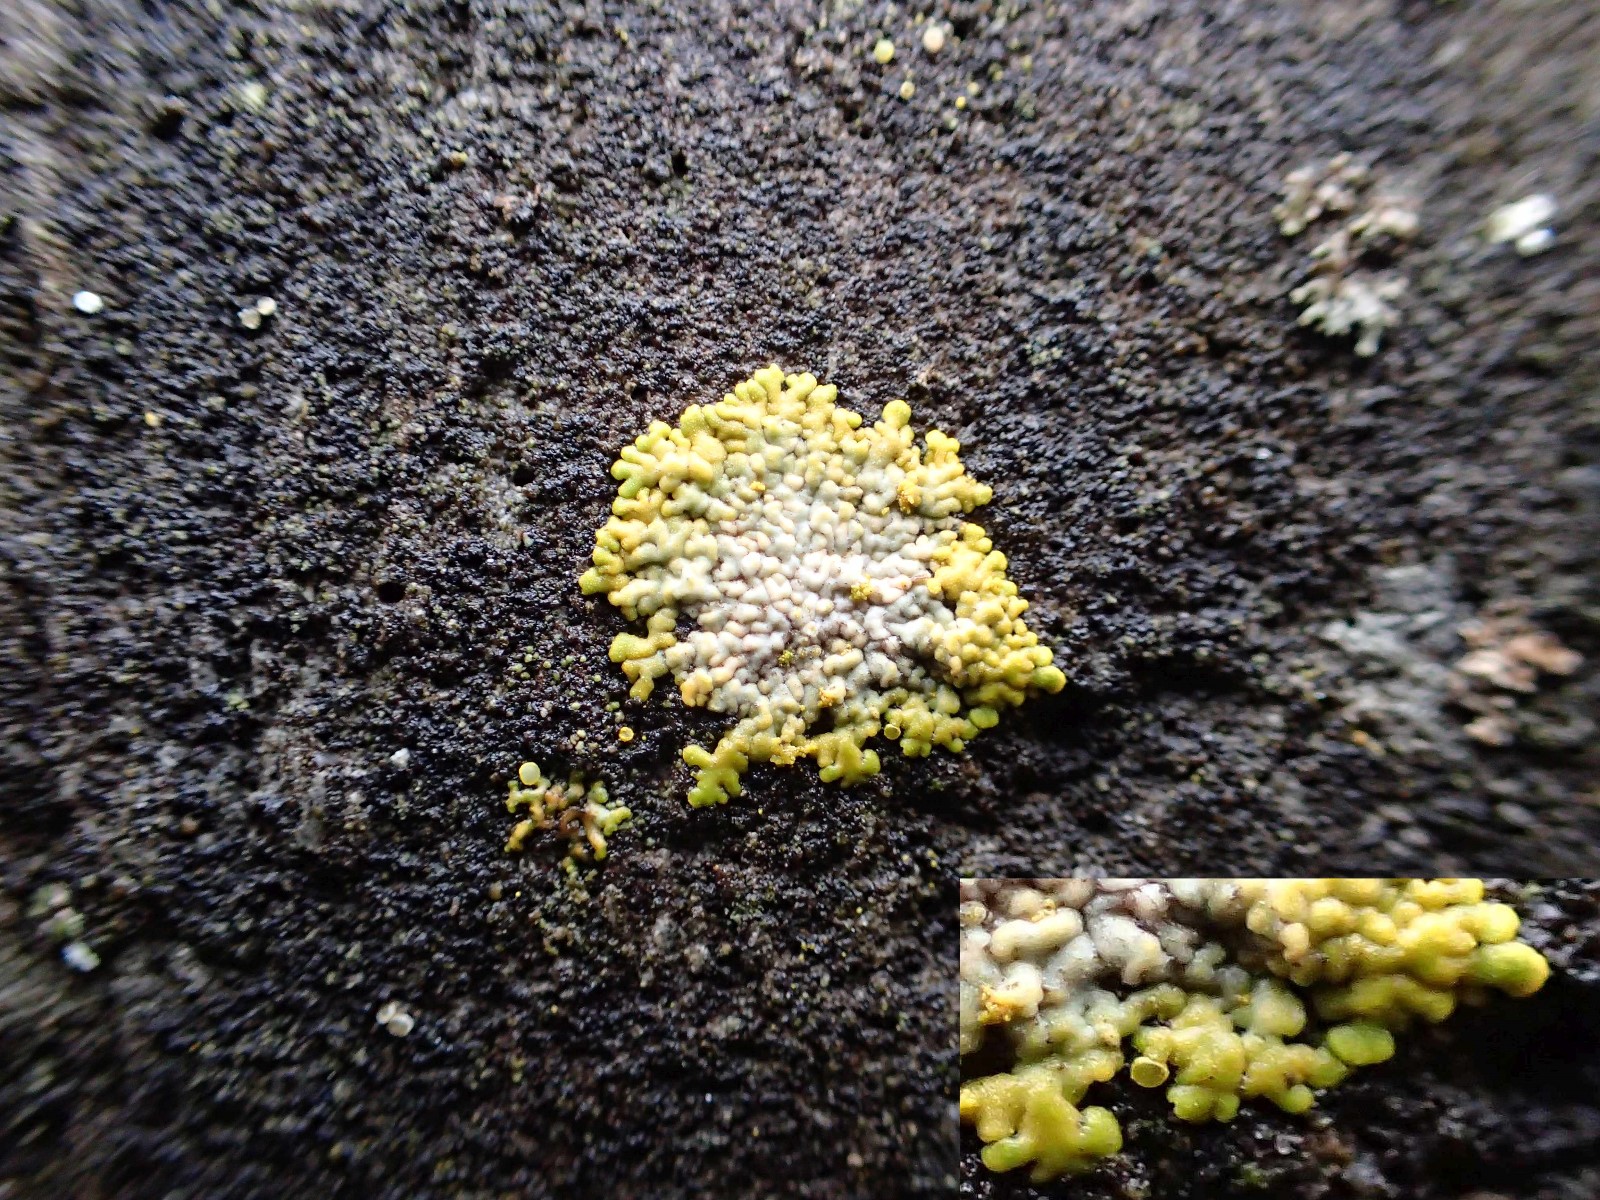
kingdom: Fungi
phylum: Ascomycota
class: Lecanoromycetes
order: Teloschistales
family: Teloschistaceae
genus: Calogaya
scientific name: Calogaya decipiens
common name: knudret orangelav
